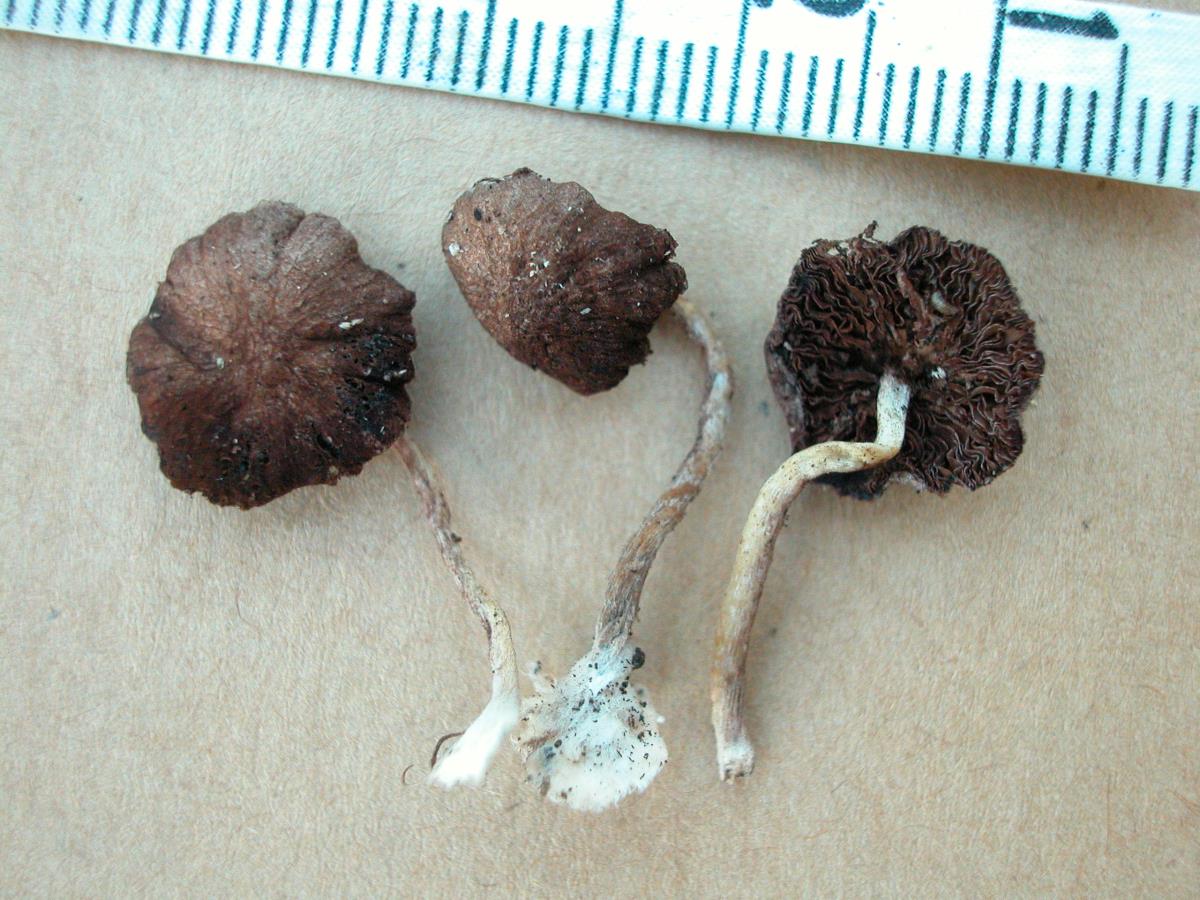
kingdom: Fungi
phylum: Basidiomycota
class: Agaricomycetes
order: Agaricales
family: Psathyrellaceae
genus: Psathyrella
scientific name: Psathyrella
